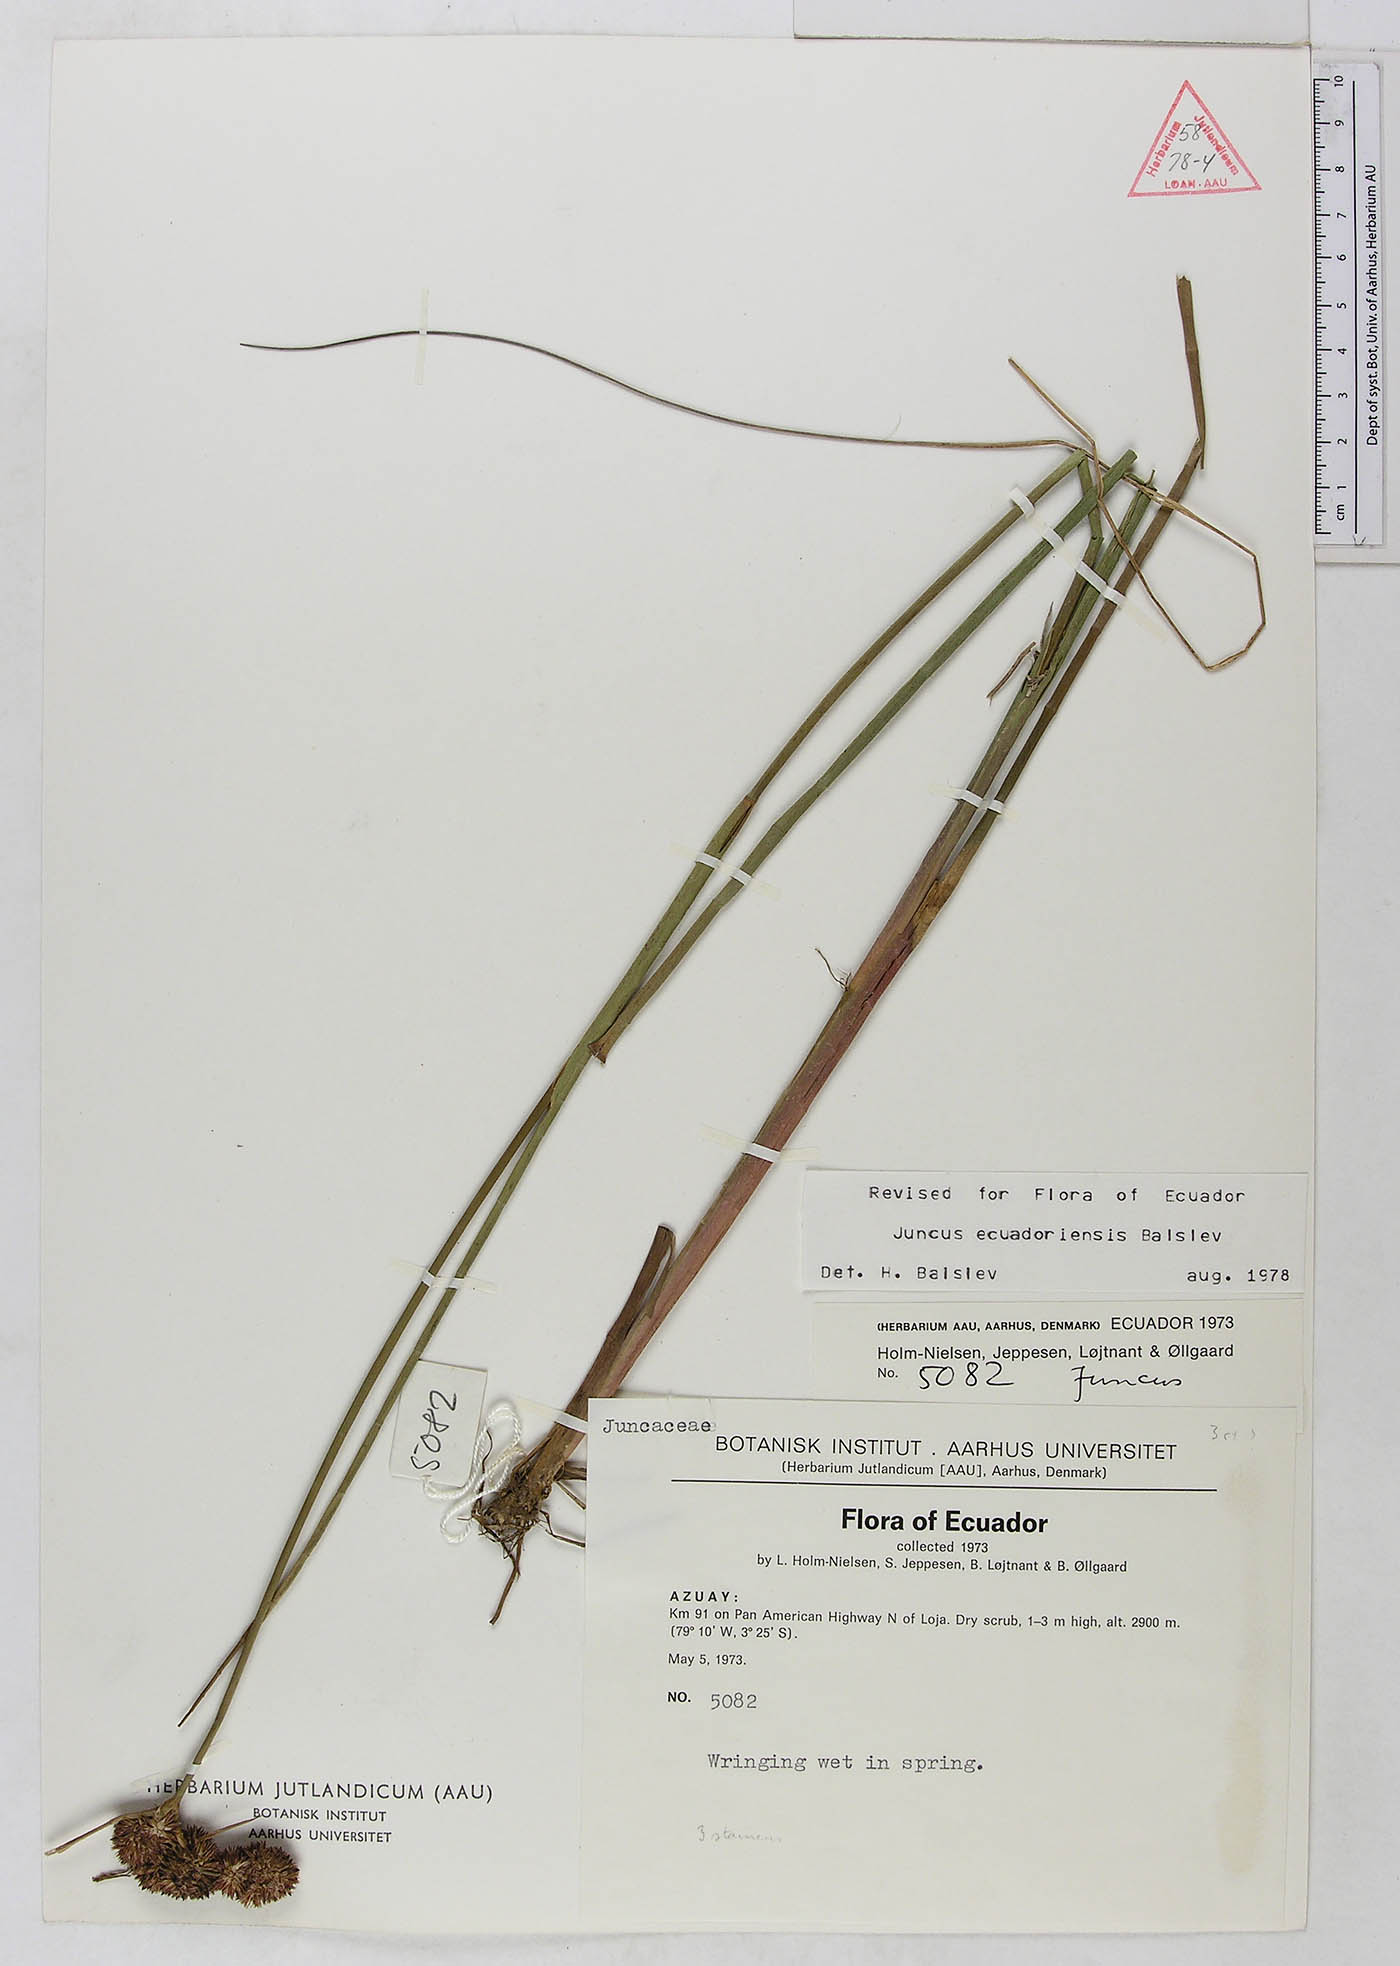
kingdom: Plantae
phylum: Tracheophyta
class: Liliopsida
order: Poales
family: Juncaceae
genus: Juncus
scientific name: Juncus ecuadoriensis
